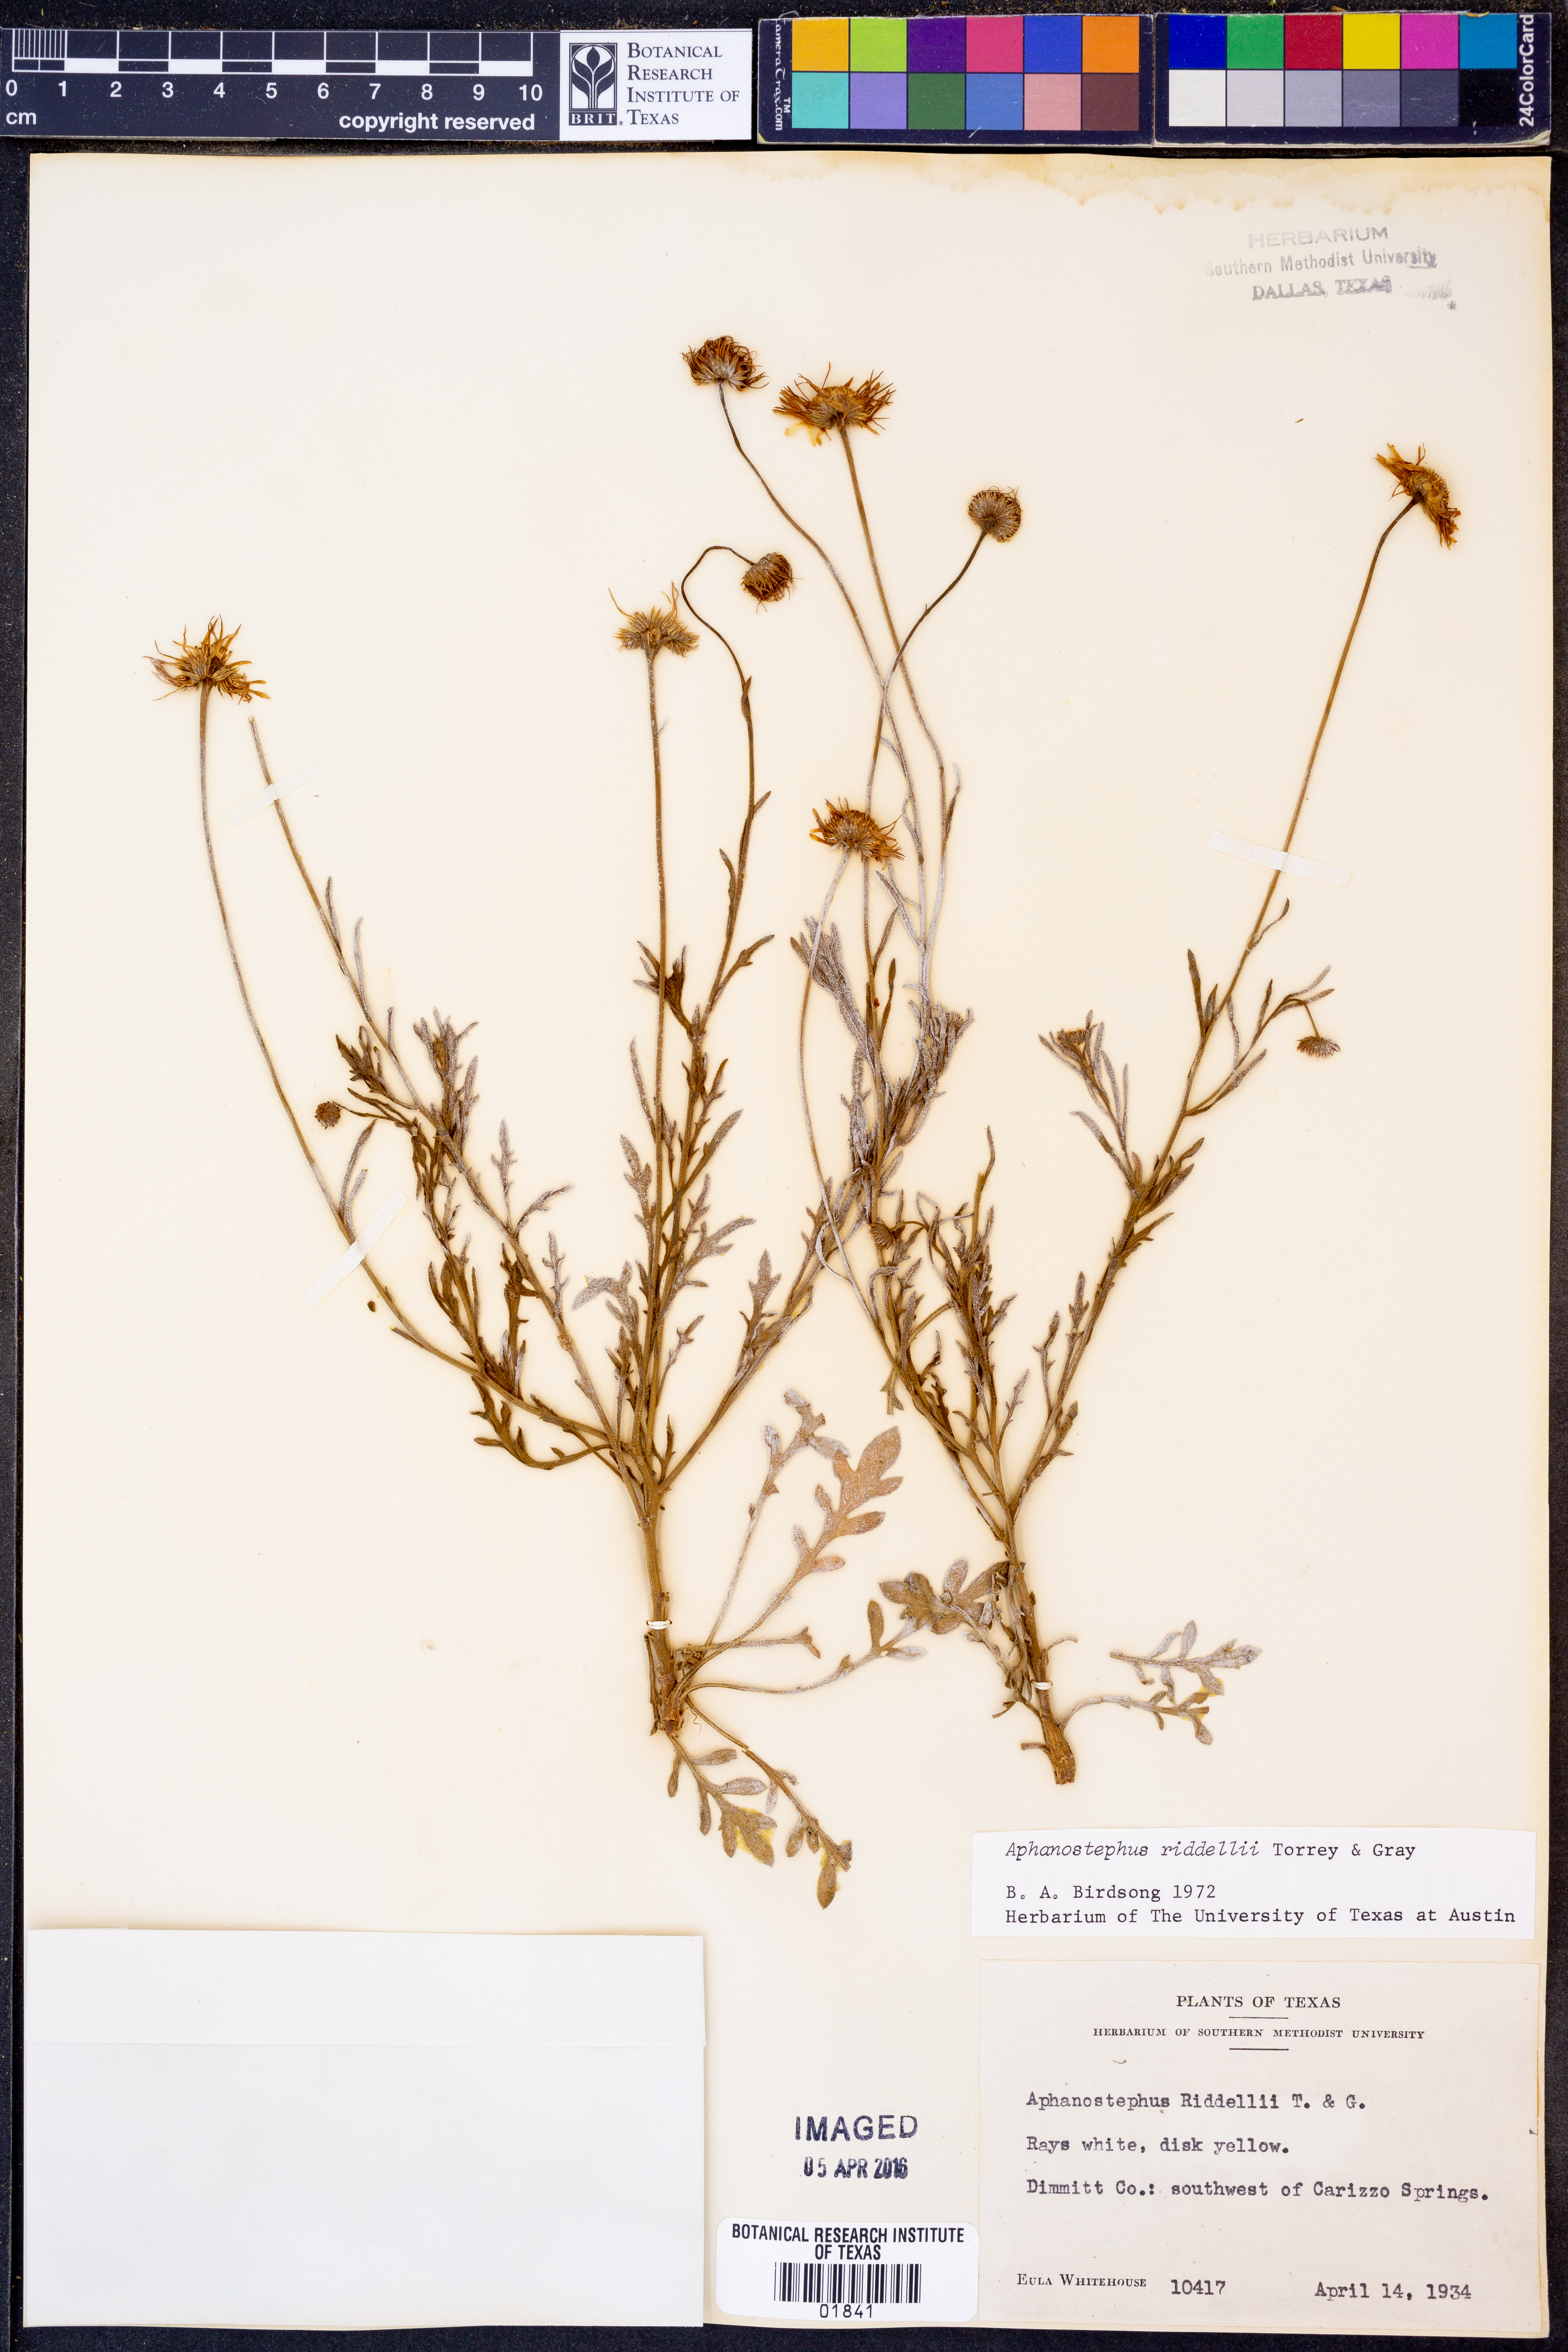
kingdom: Plantae
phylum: Tracheophyta
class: Magnoliopsida
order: Asterales
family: Asteraceae
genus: Aphanostephus
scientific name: Aphanostephus riddellii
